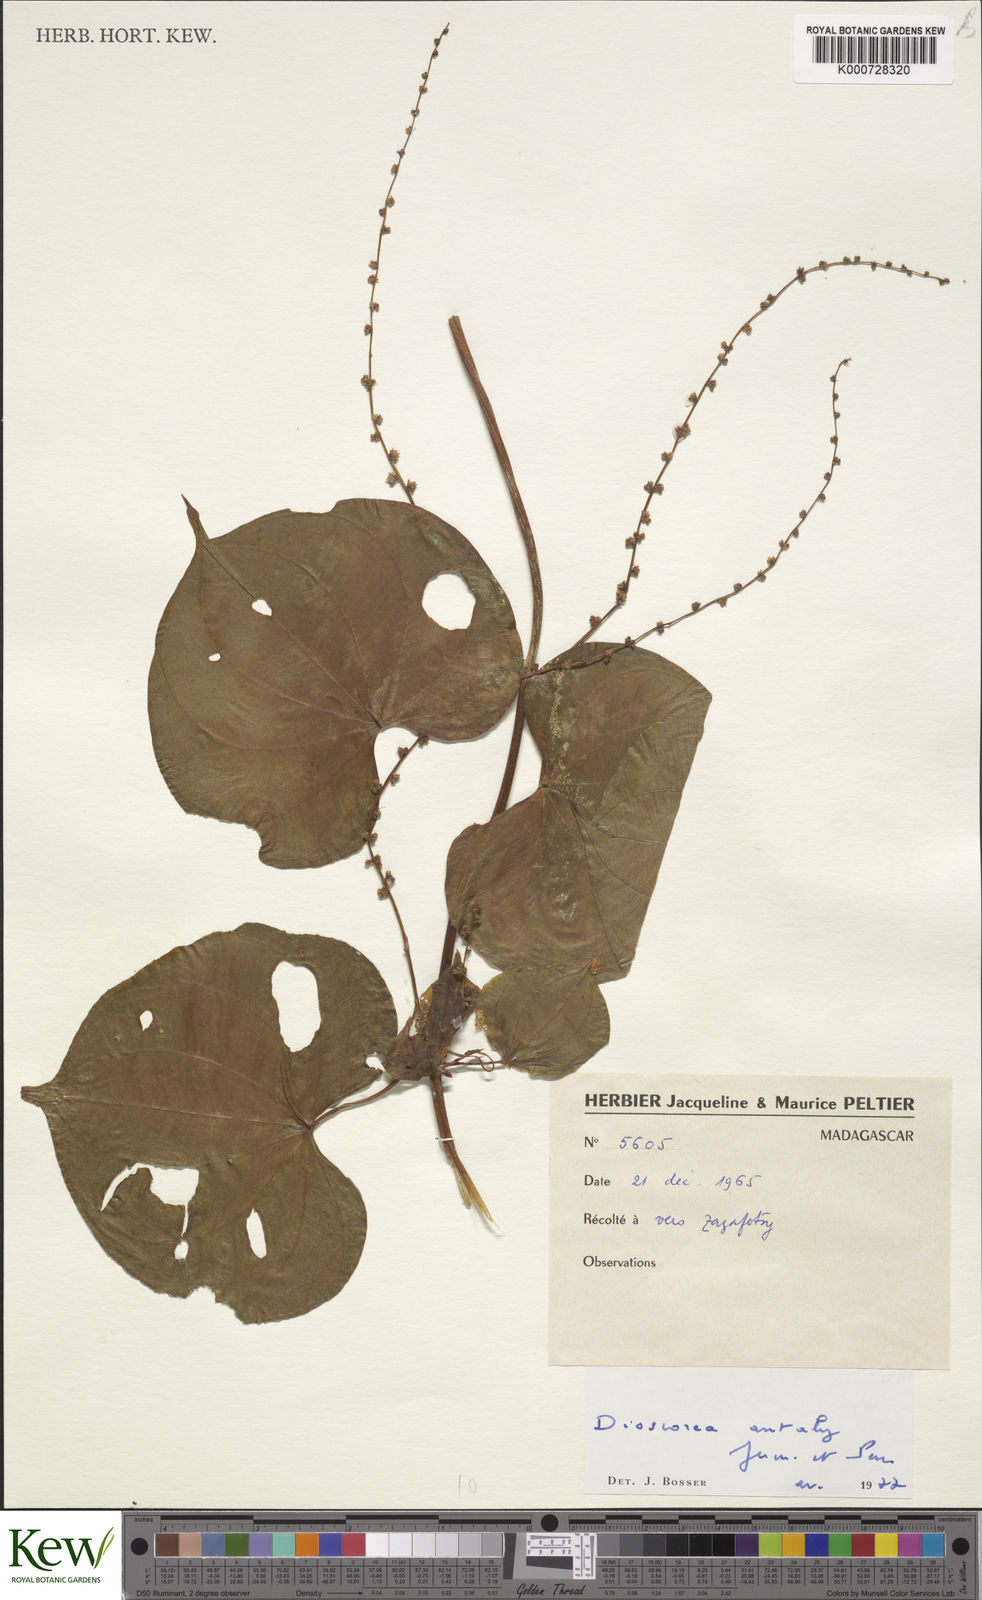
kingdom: Plantae
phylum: Tracheophyta
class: Liliopsida
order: Dioscoreales
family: Dioscoreaceae
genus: Dioscorea
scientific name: Dioscorea antaly
